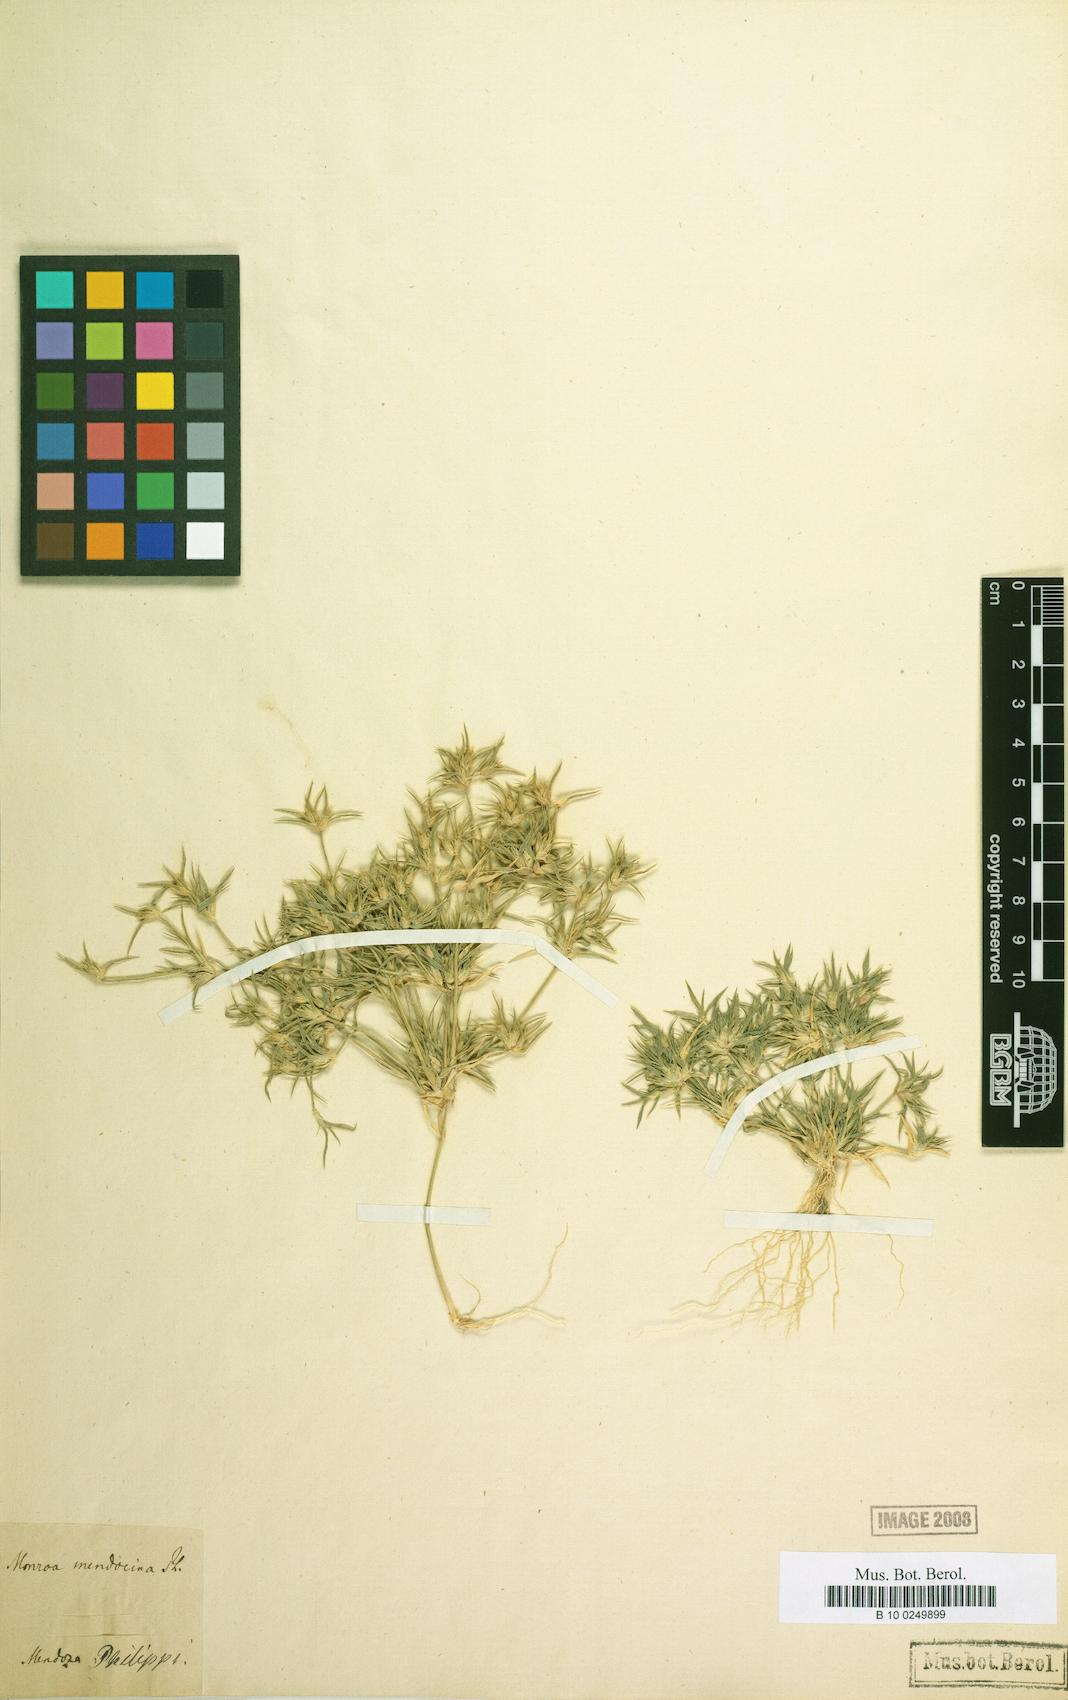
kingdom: Plantae
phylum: Tracheophyta
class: Liliopsida
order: Poales
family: Poaceae
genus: Munroa
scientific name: Munroa mendocina
